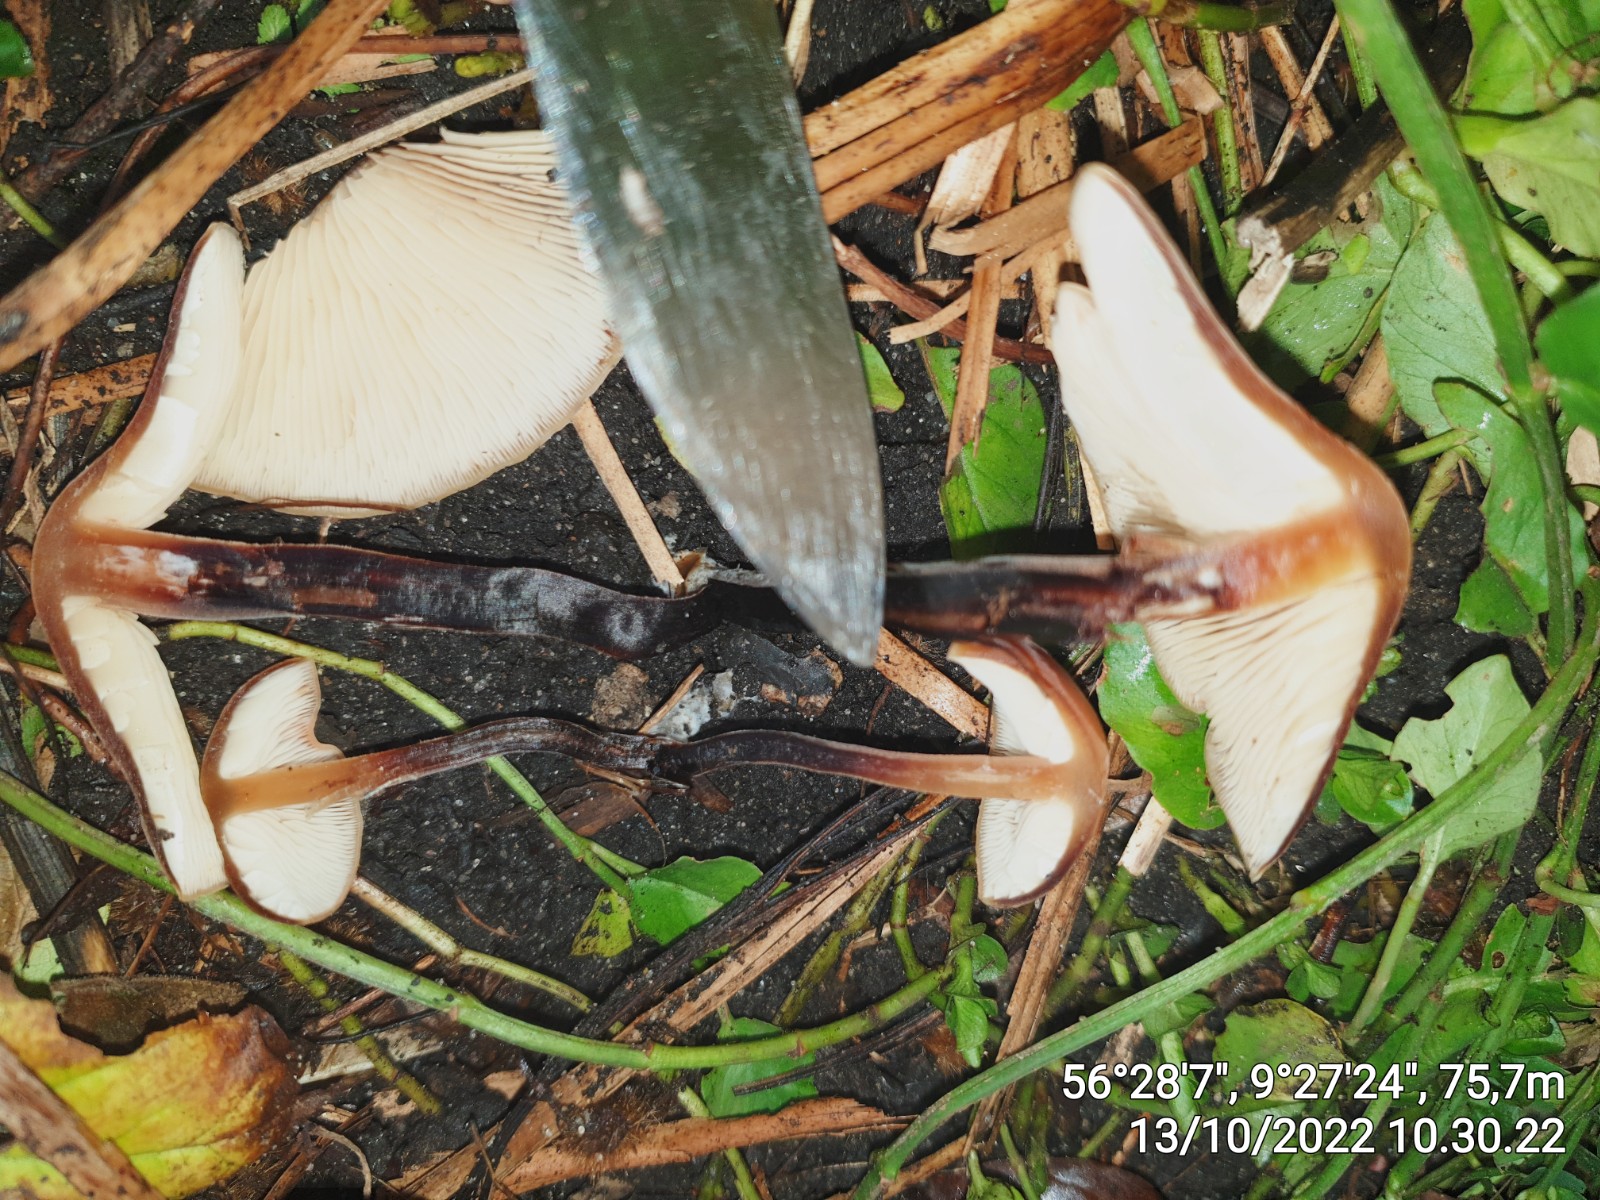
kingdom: Fungi
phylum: Basidiomycota
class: Agaricomycetes
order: Agaricales
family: Macrocystidiaceae
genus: Macrocystidia
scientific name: Macrocystidia cucumis
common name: agurkehat
